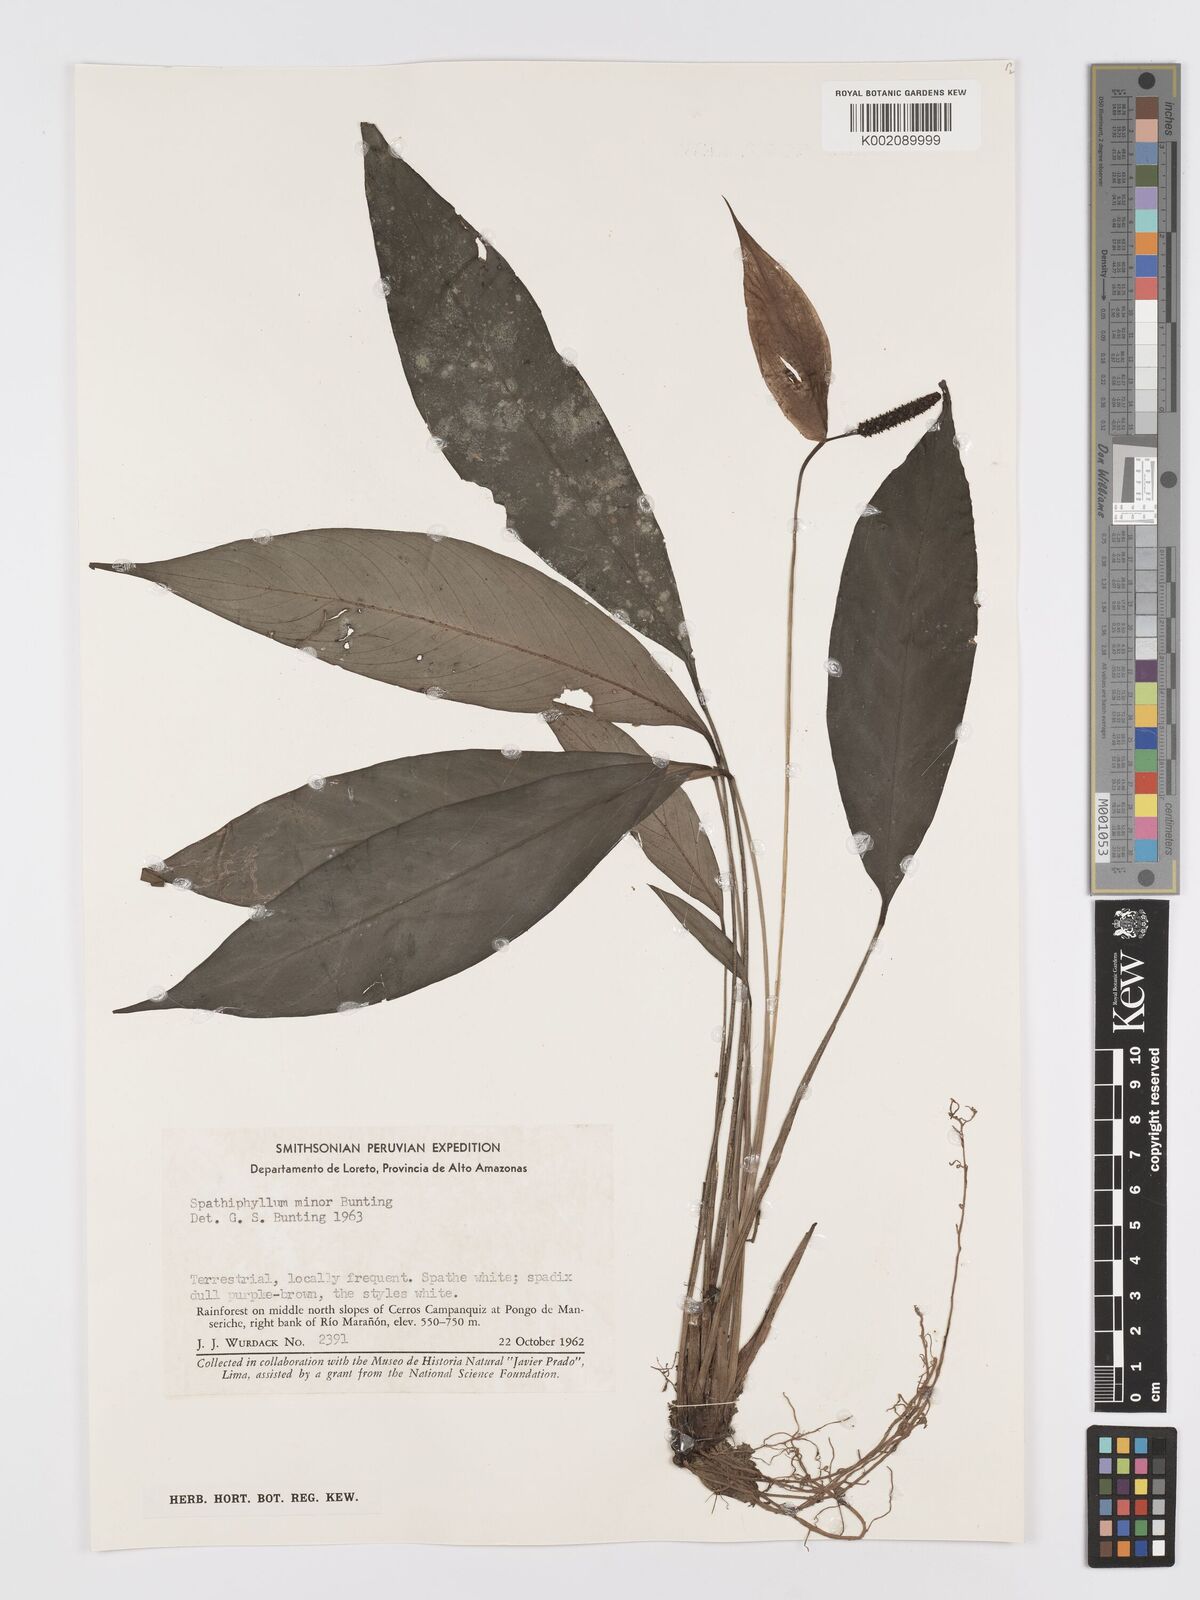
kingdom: Plantae
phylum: Tracheophyta
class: Liliopsida
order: Alismatales
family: Araceae
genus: Spathiphyllum
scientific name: Spathiphyllum minus
